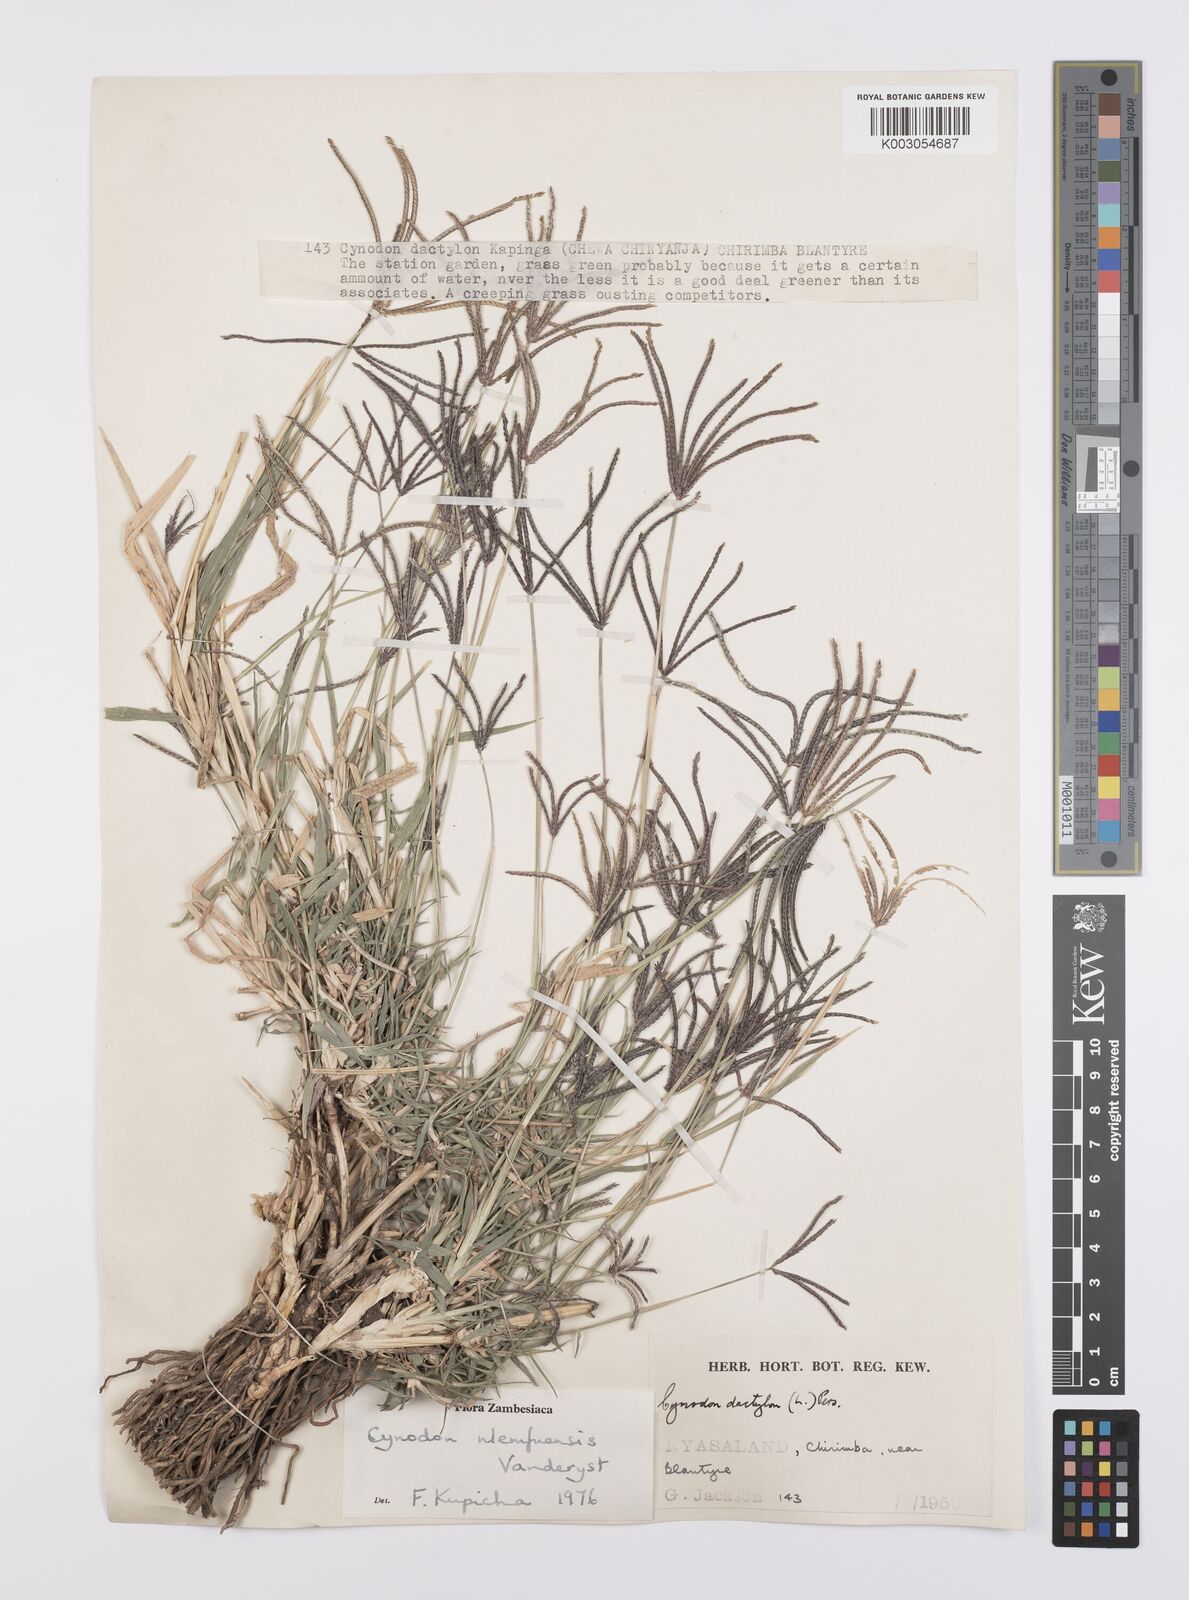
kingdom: Plantae
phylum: Tracheophyta
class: Liliopsida
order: Poales
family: Poaceae
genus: Cynodon
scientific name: Cynodon nlemfuensis
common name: African bermudagrass
